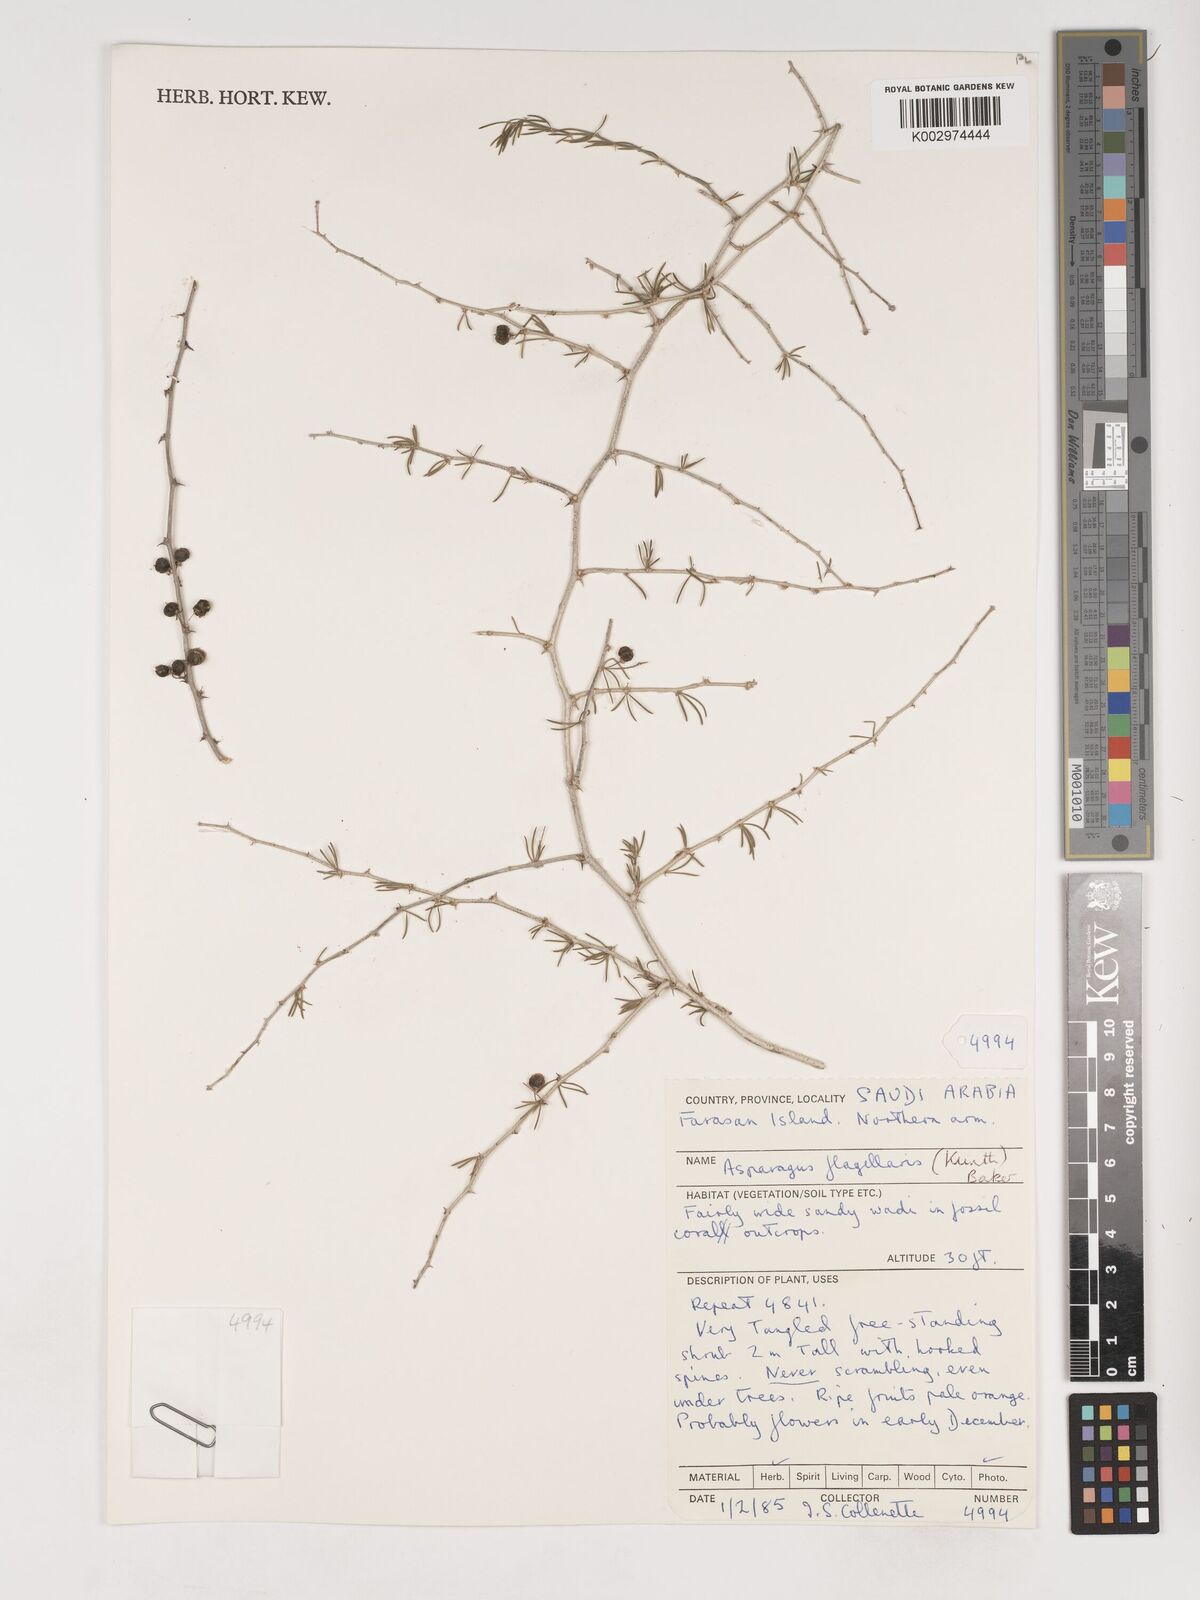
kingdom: Plantae
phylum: Tracheophyta
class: Liliopsida
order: Asparagales
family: Asparagaceae
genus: Asparagus
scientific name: Asparagus flagellaris
